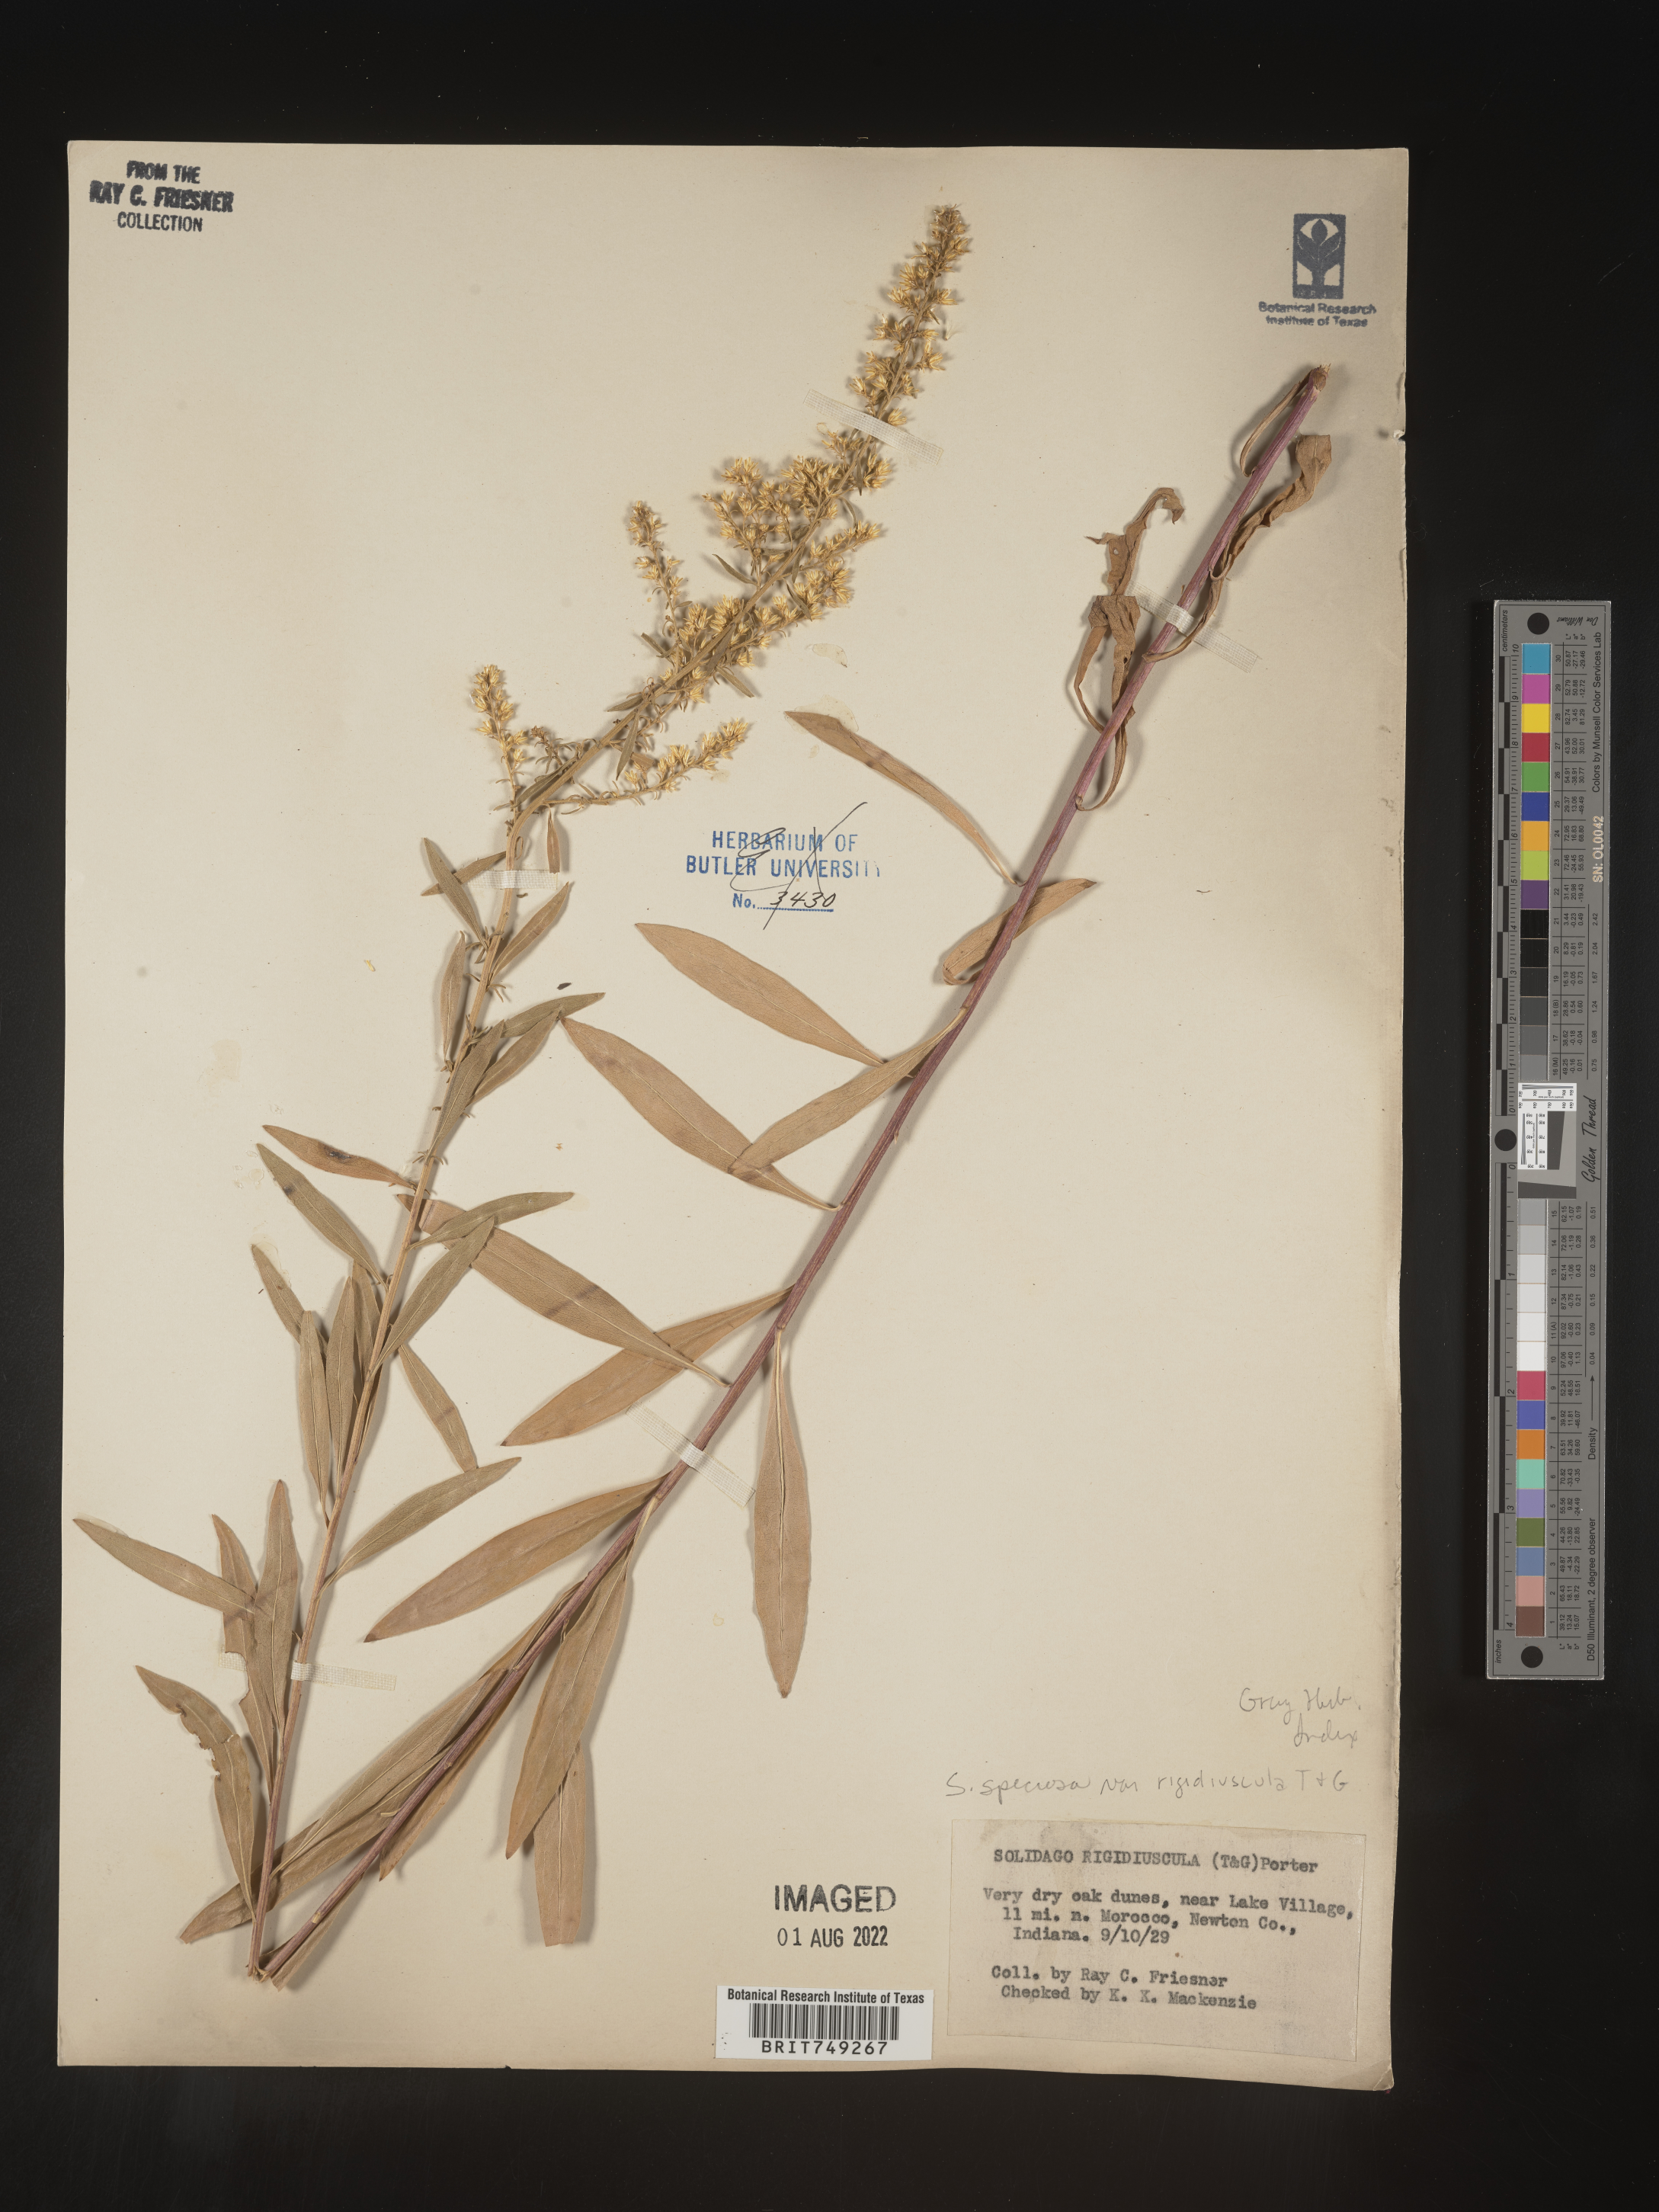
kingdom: Plantae
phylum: Tracheophyta
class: Magnoliopsida
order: Asterales
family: Asteraceae
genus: Solidago
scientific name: Solidago speciosa
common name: Showy goldenrod
